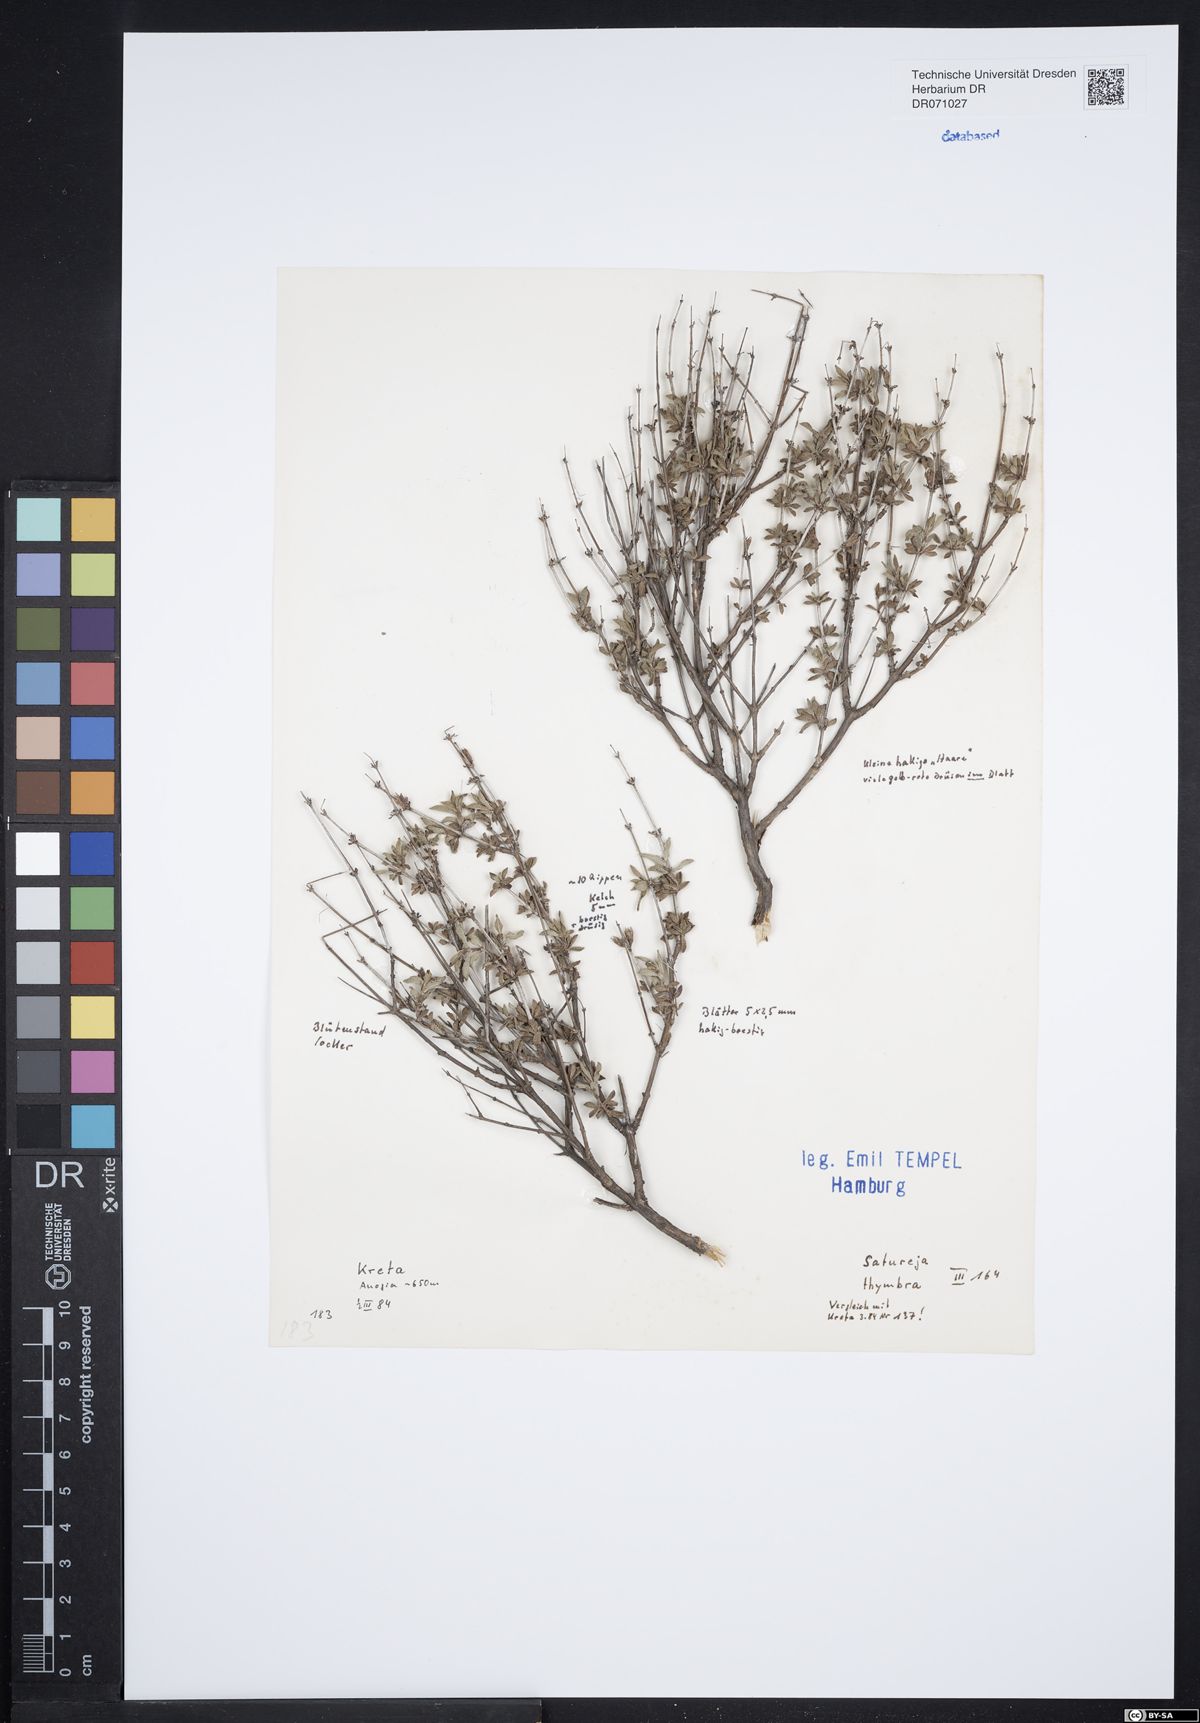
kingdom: Plantae
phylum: Tracheophyta
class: Magnoliopsida
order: Lamiales
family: Lamiaceae
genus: Satureja
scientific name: Satureja thymbra
